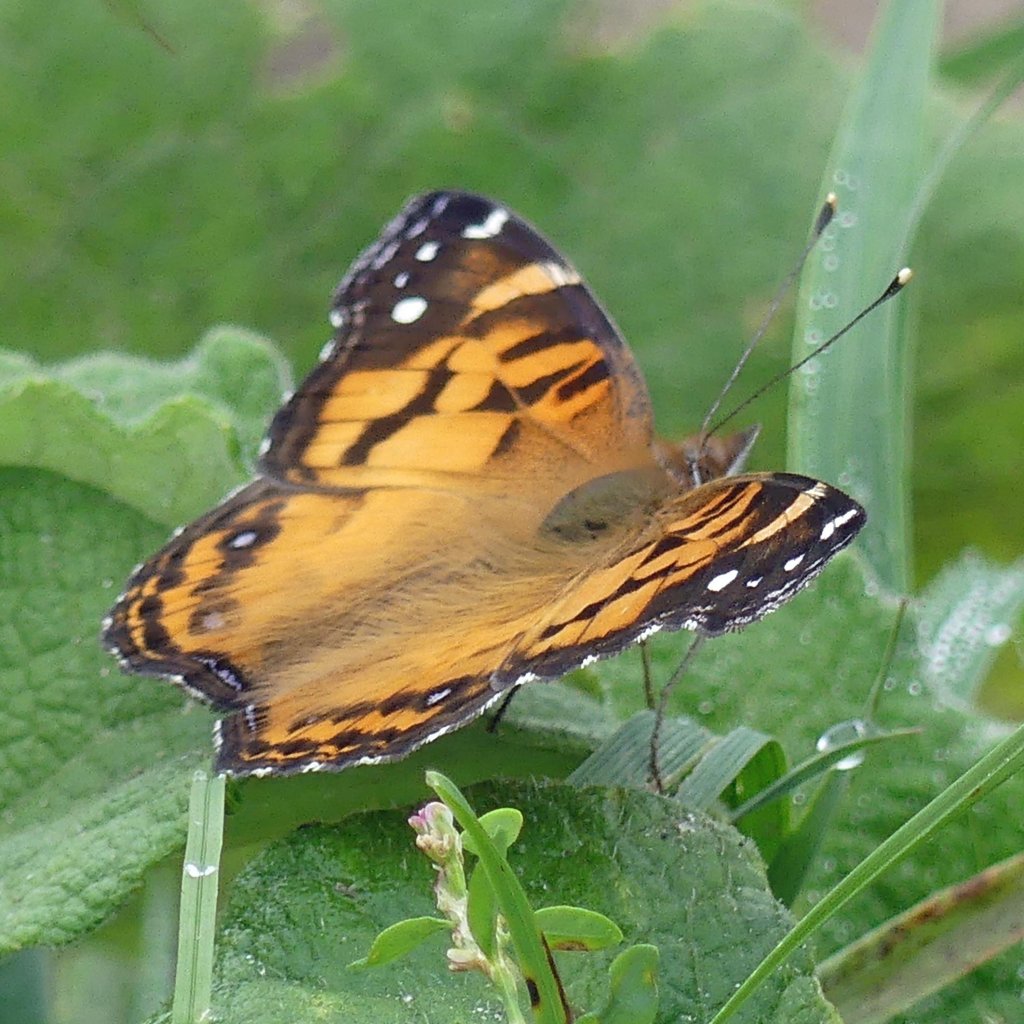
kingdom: Animalia
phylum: Arthropoda
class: Insecta
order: Lepidoptera
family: Nymphalidae
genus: Vanessa
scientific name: Vanessa virginiensis
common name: American Lady
